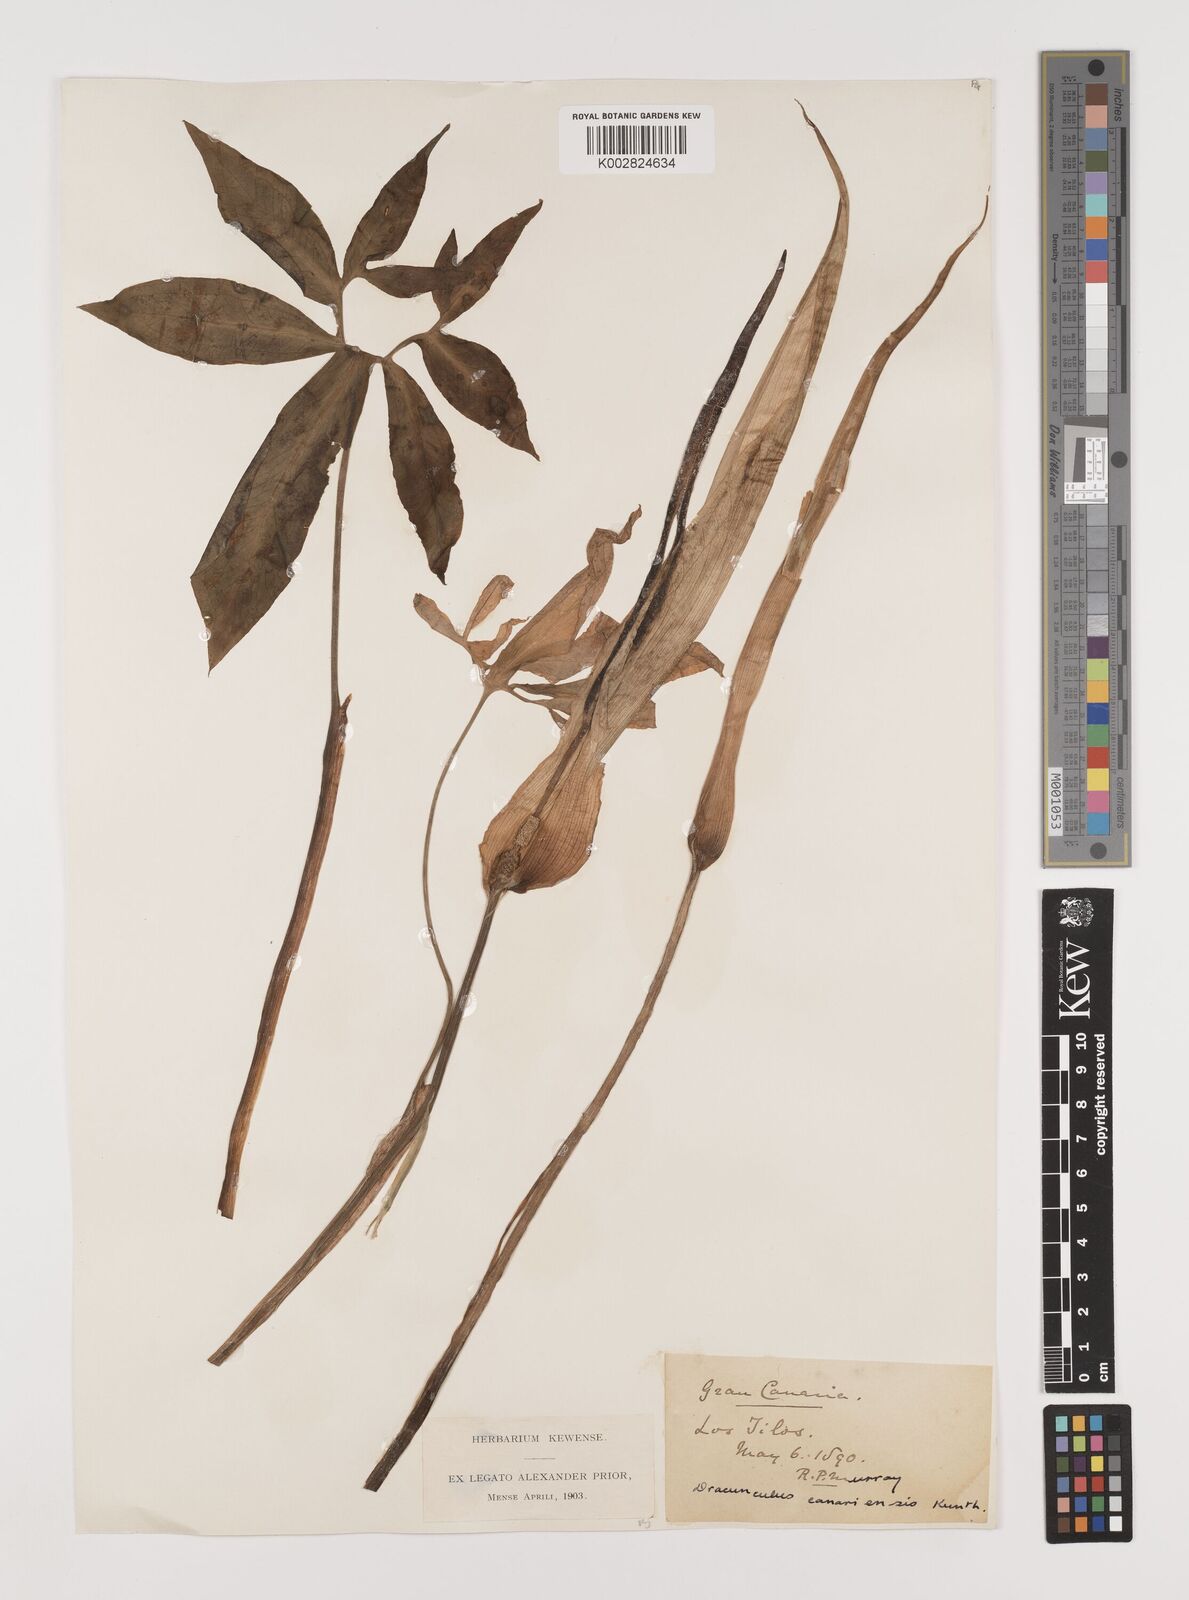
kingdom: Plantae
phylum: Tracheophyta
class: Liliopsida
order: Alismatales
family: Araceae
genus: Dracunculus
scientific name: Dracunculus
